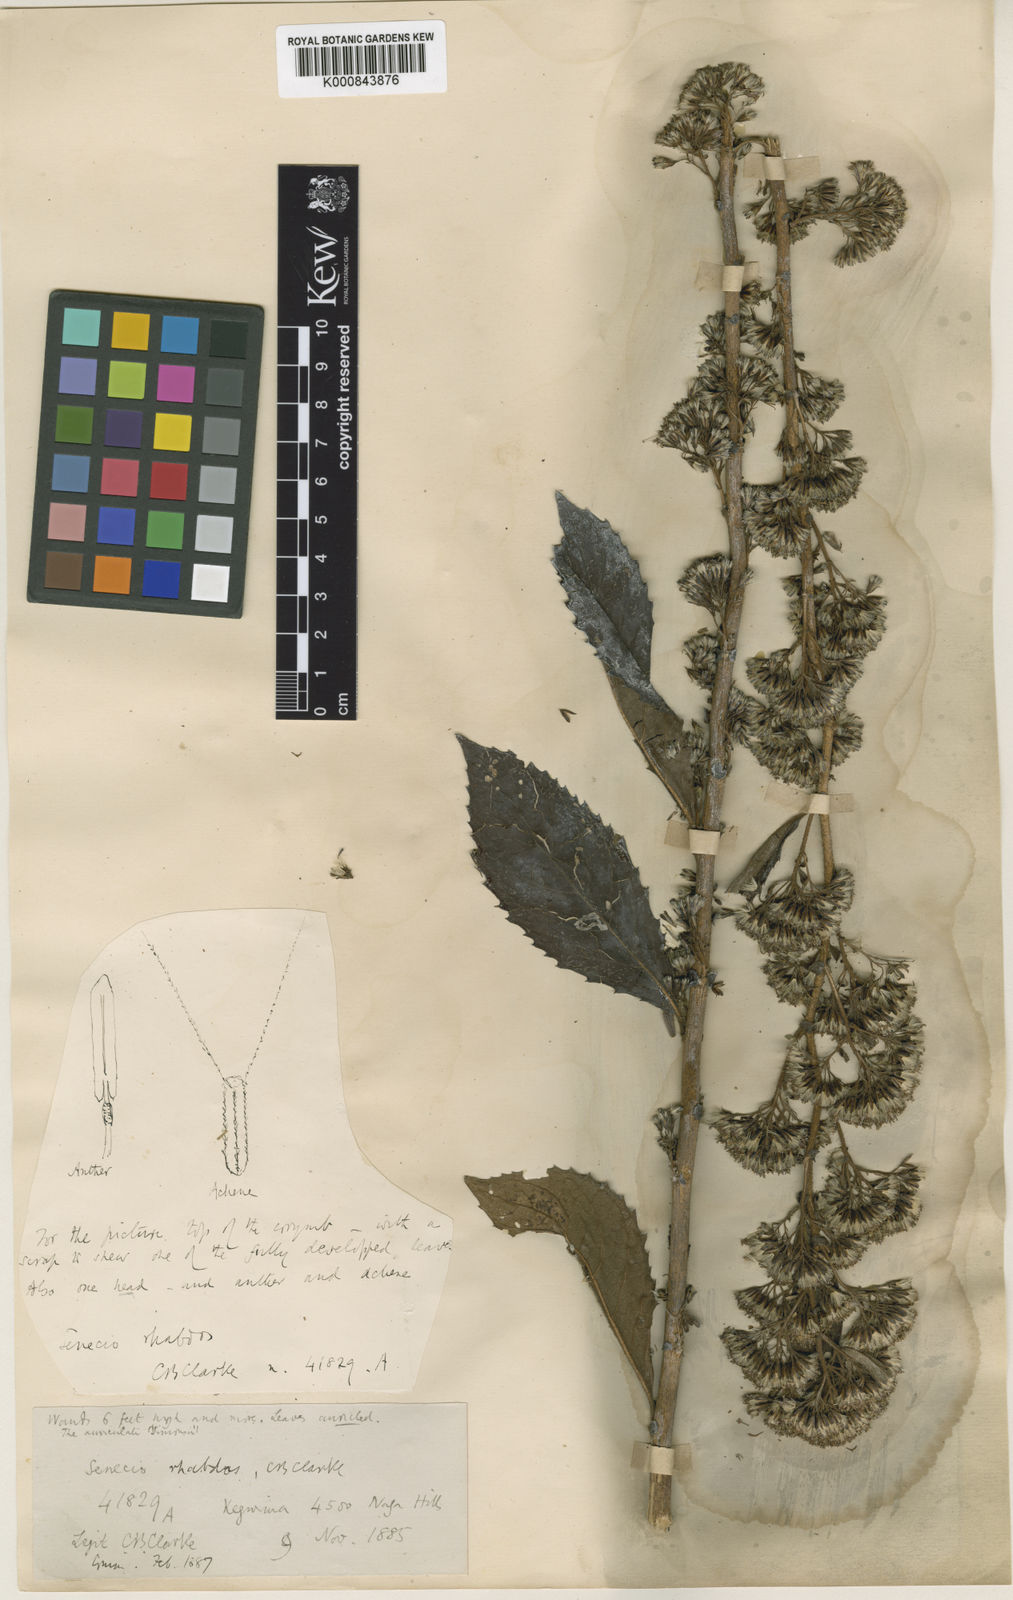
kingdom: Plantae
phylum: Tracheophyta
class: Magnoliopsida
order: Asterales
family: Asteraceae
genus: Synotis
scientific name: Synotis rufinervis
